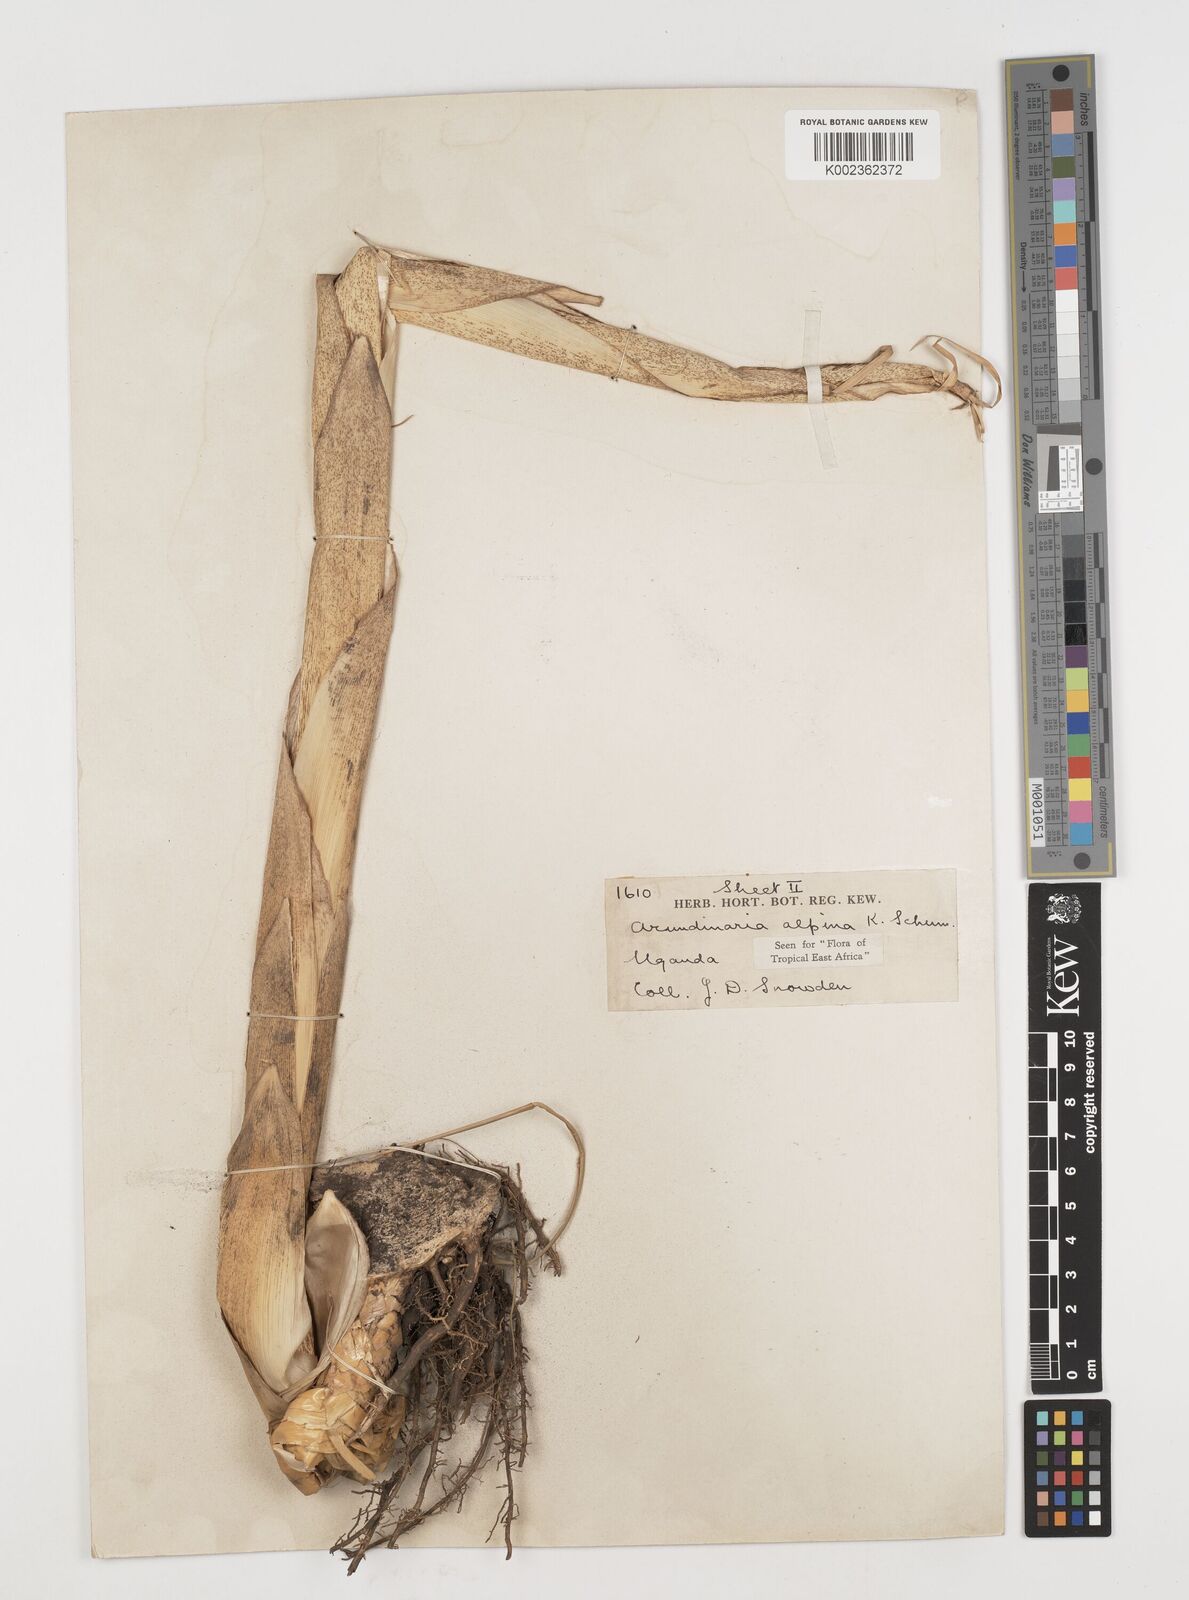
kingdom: Plantae
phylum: Tracheophyta
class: Liliopsida
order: Poales
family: Poaceae
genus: Oldeania
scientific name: Oldeania alpina
